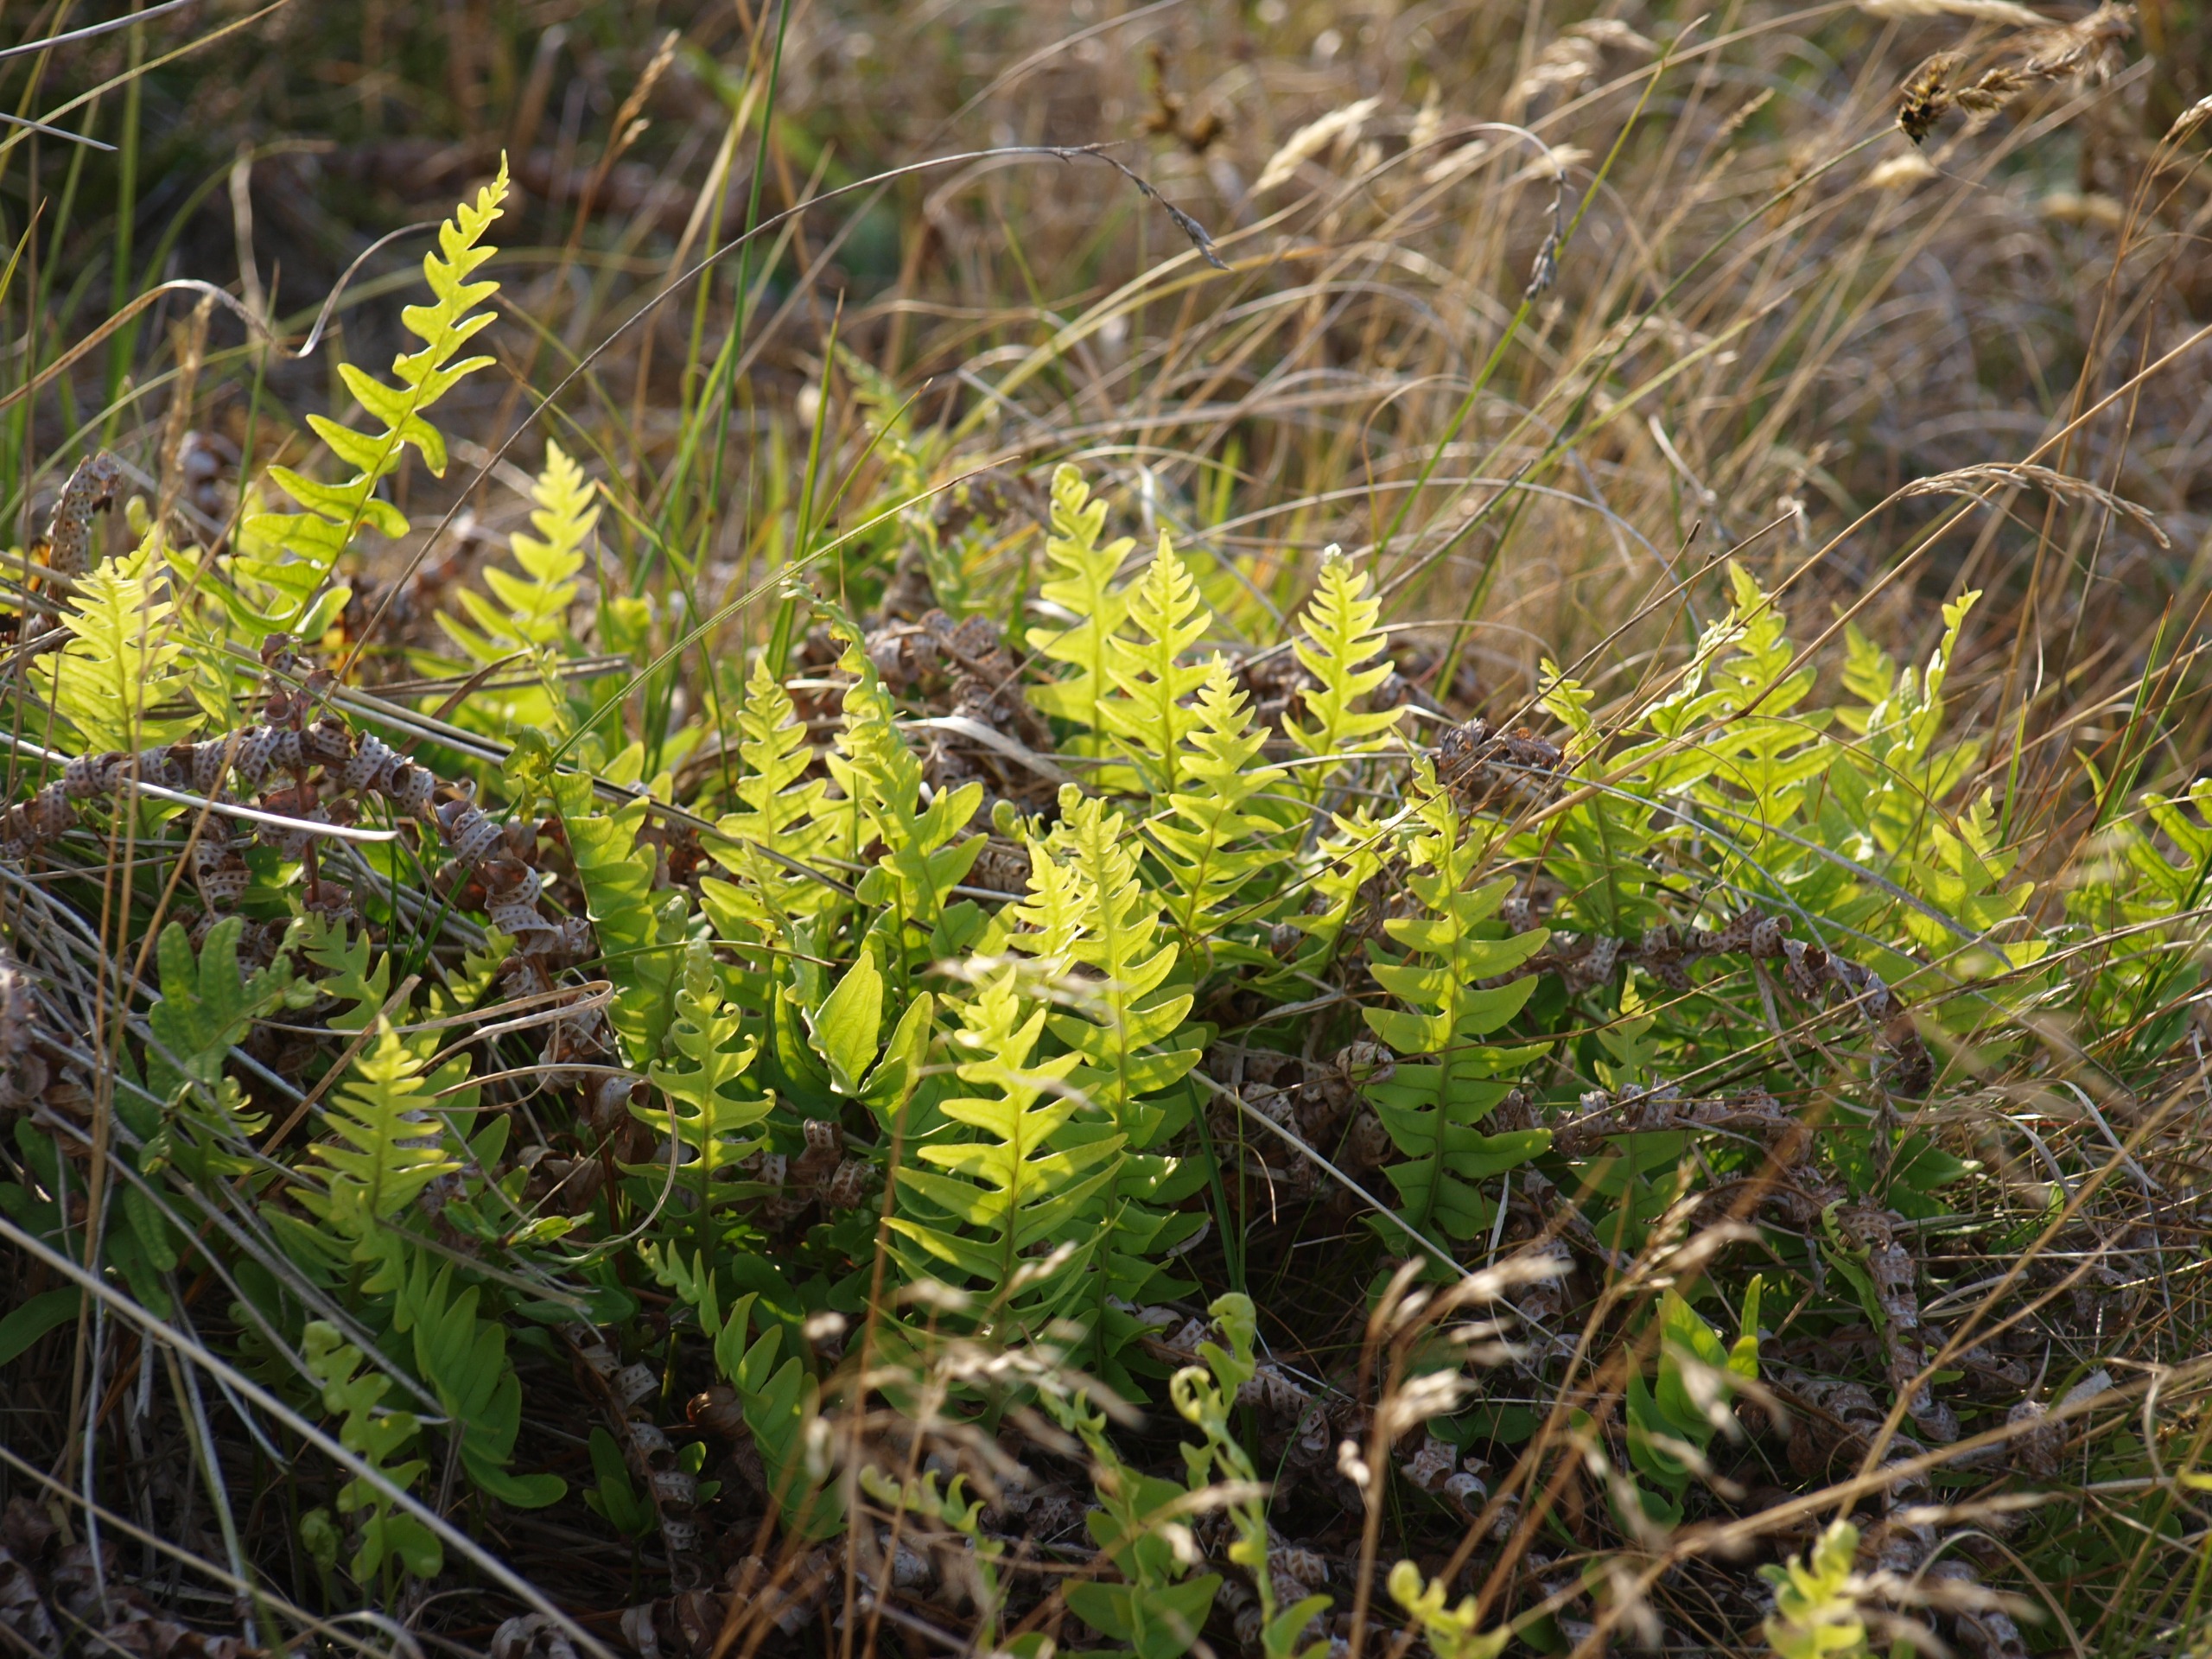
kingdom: Plantae
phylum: Tracheophyta
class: Polypodiopsida
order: Polypodiales
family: Polypodiaceae
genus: Polypodium
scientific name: Polypodium vulgare
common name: Almindelig engelsød
